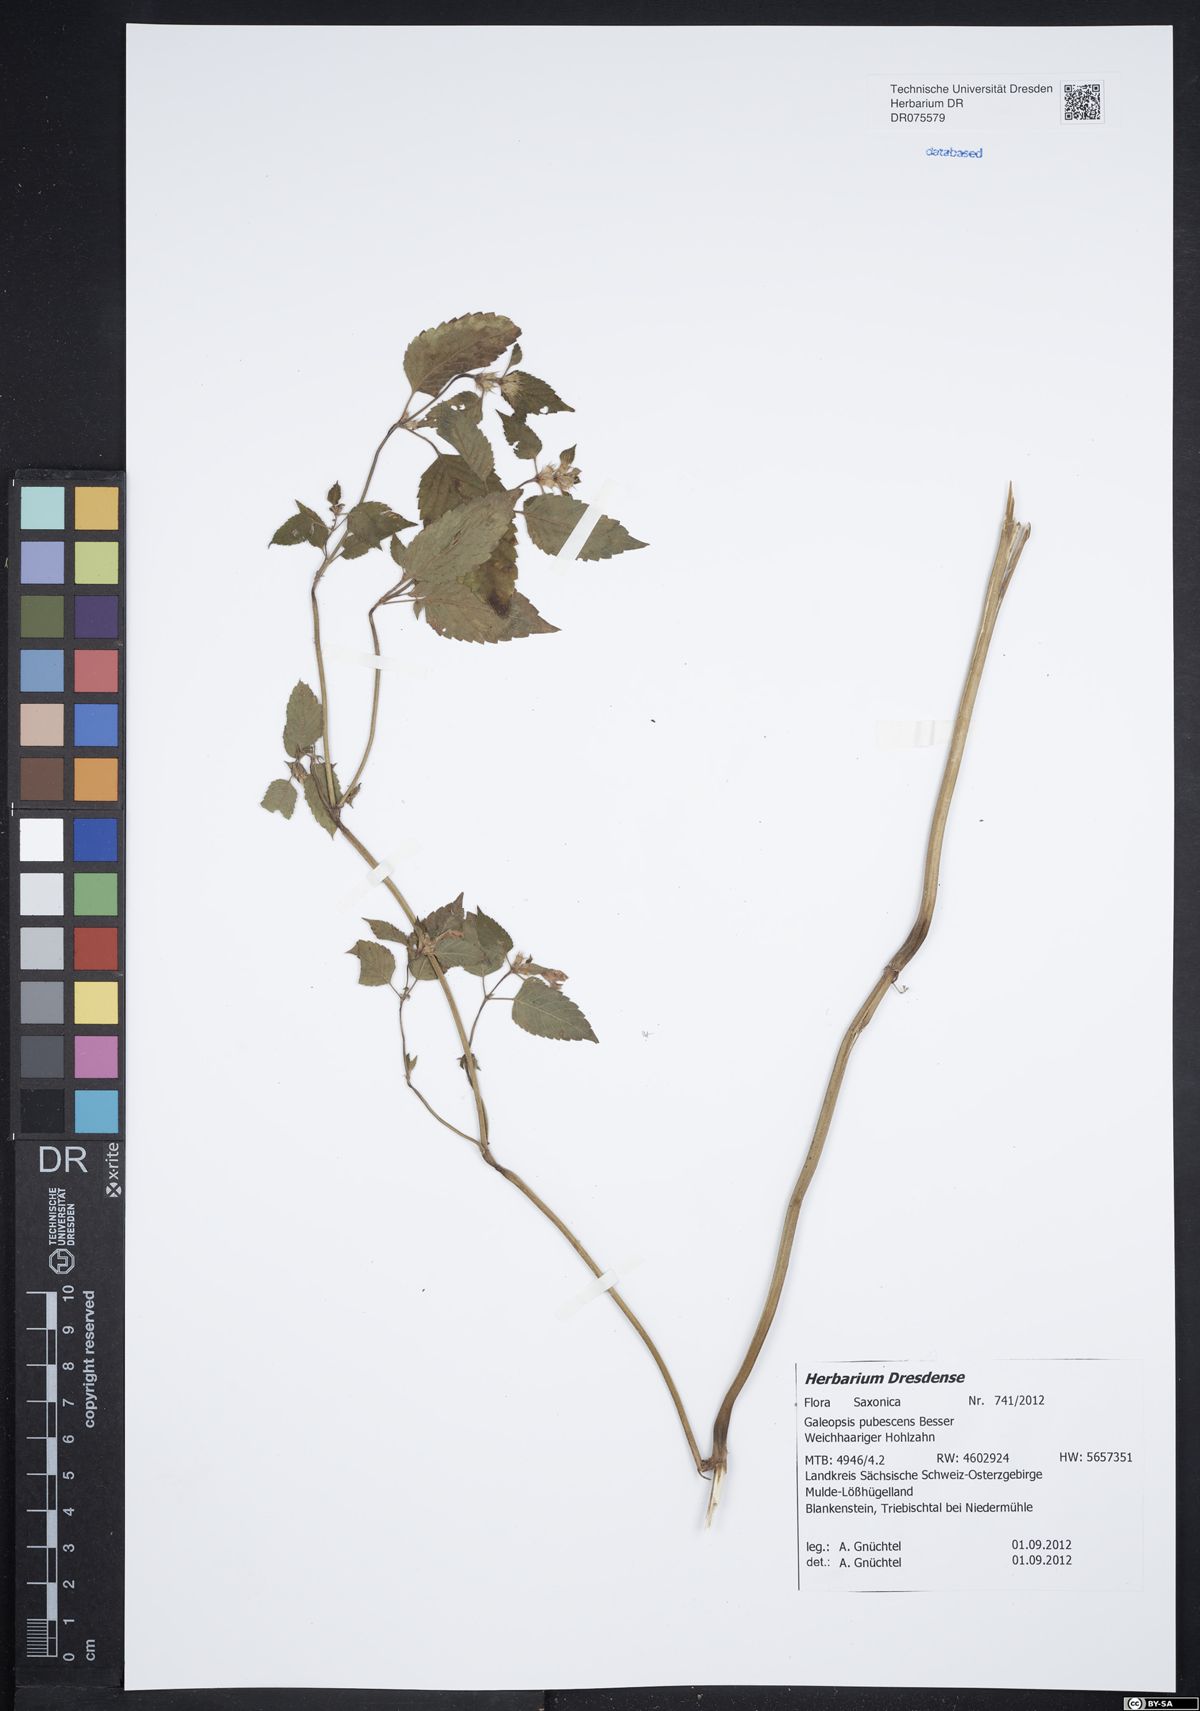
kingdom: Plantae
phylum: Tracheophyta
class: Magnoliopsida
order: Lamiales
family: Lamiaceae
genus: Galeopsis
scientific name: Galeopsis pubescens
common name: Downy hemp-nettle
